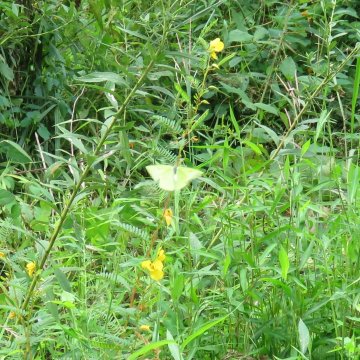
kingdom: Animalia
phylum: Arthropoda
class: Insecta
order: Lepidoptera
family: Pieridae
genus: Phoebis
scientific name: Phoebis sennae
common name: Cloudless Sulphur
